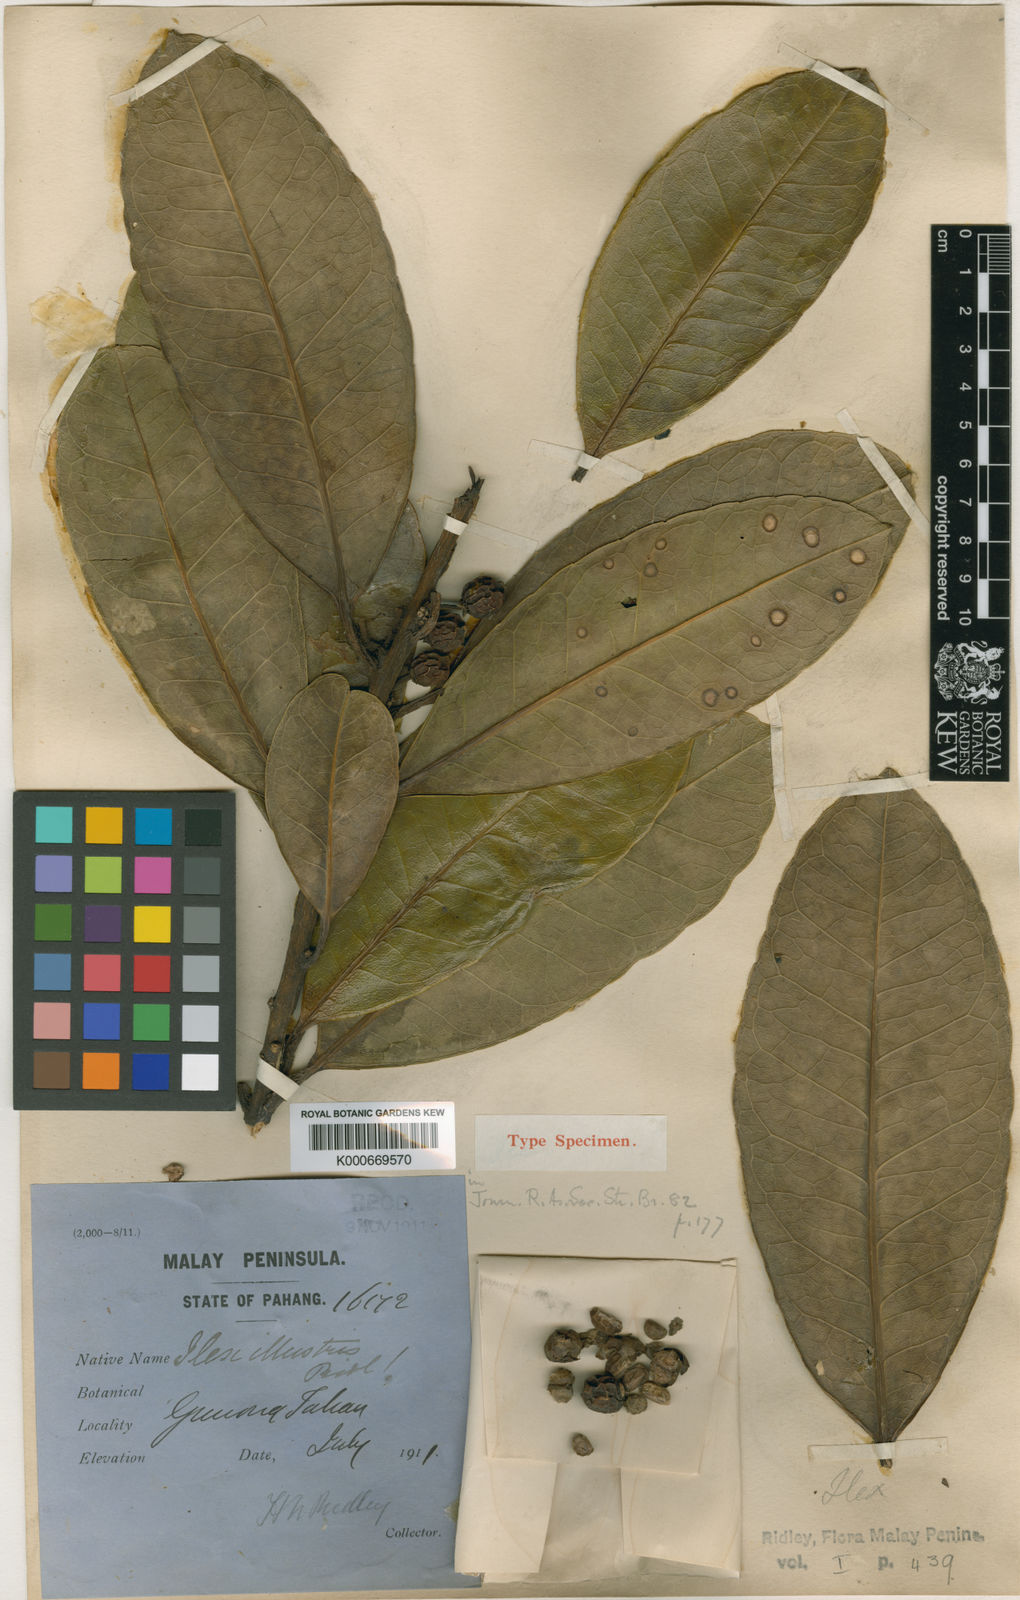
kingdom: Plantae
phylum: Tracheophyta
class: Magnoliopsida
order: Aquifoliales
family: Aquifoliaceae
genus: Ilex
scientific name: Ilex illustris
